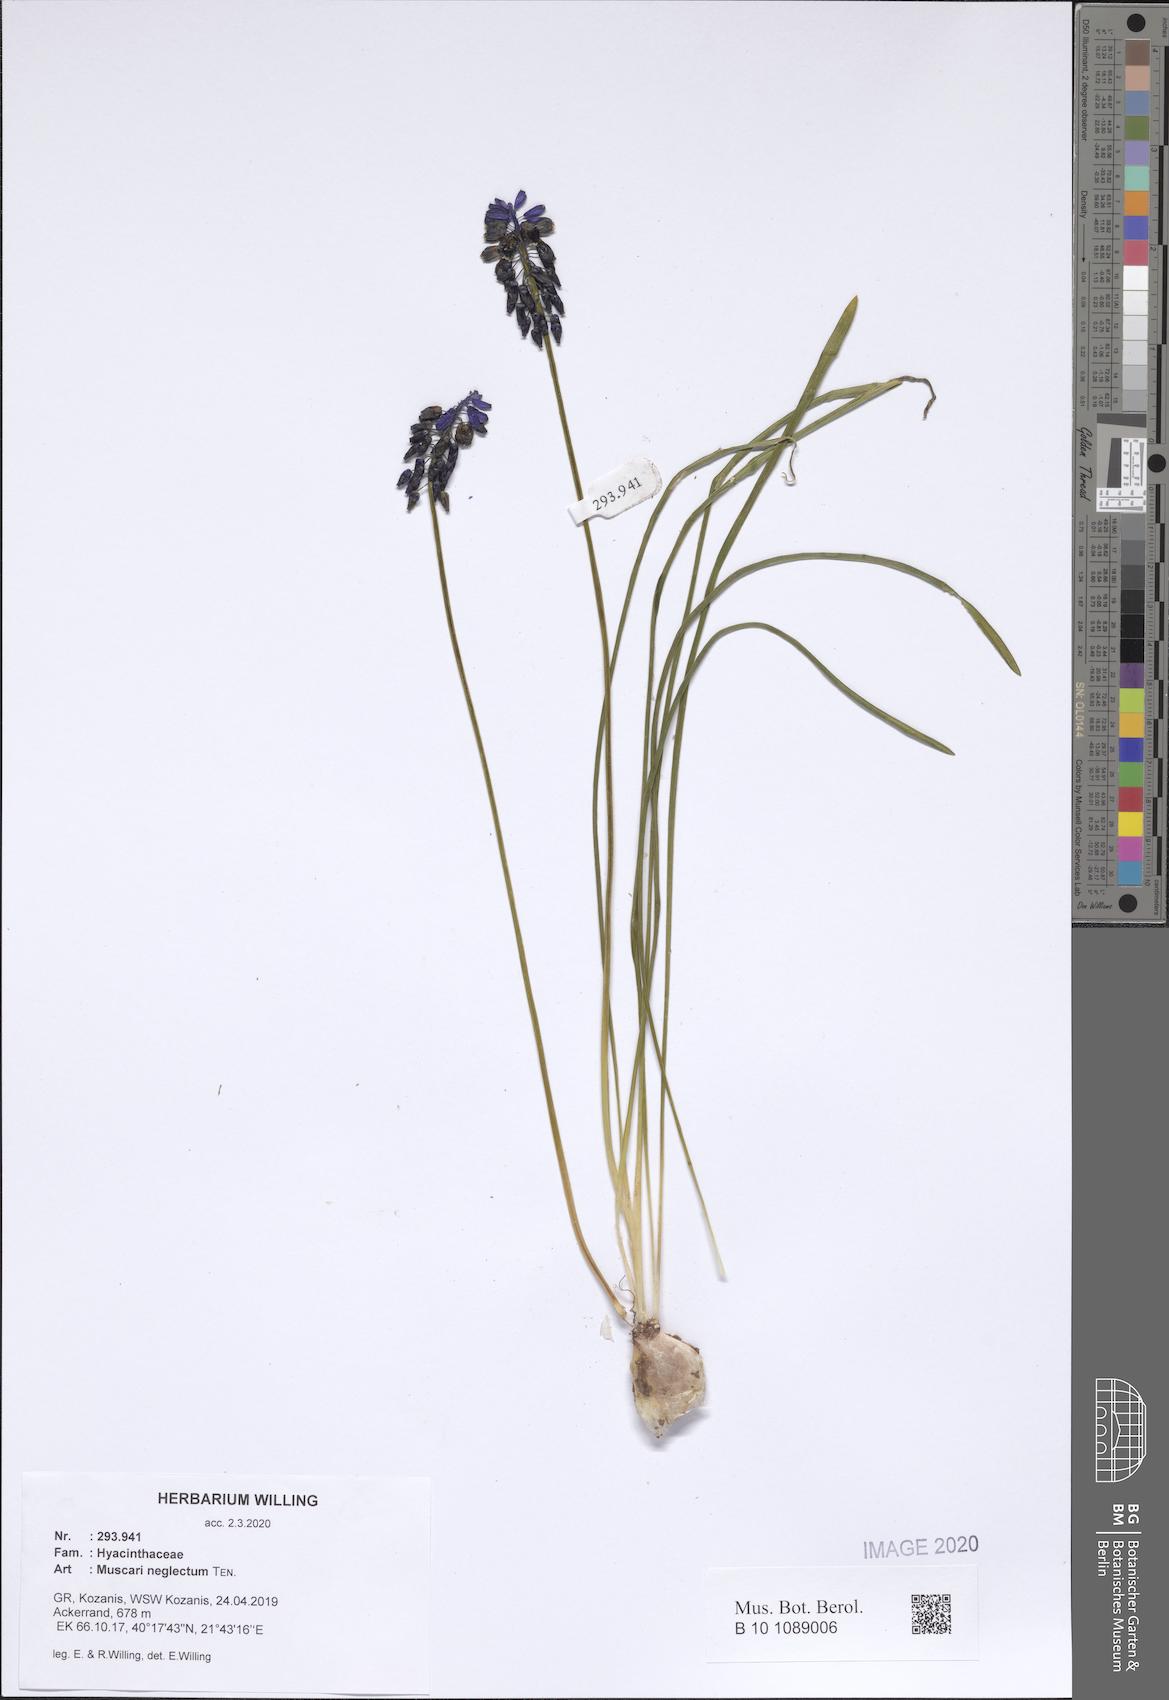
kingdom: Plantae
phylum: Tracheophyta
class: Liliopsida
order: Asparagales
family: Asparagaceae
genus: Muscari
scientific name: Muscari neglectum
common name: Grape-hyacinth
